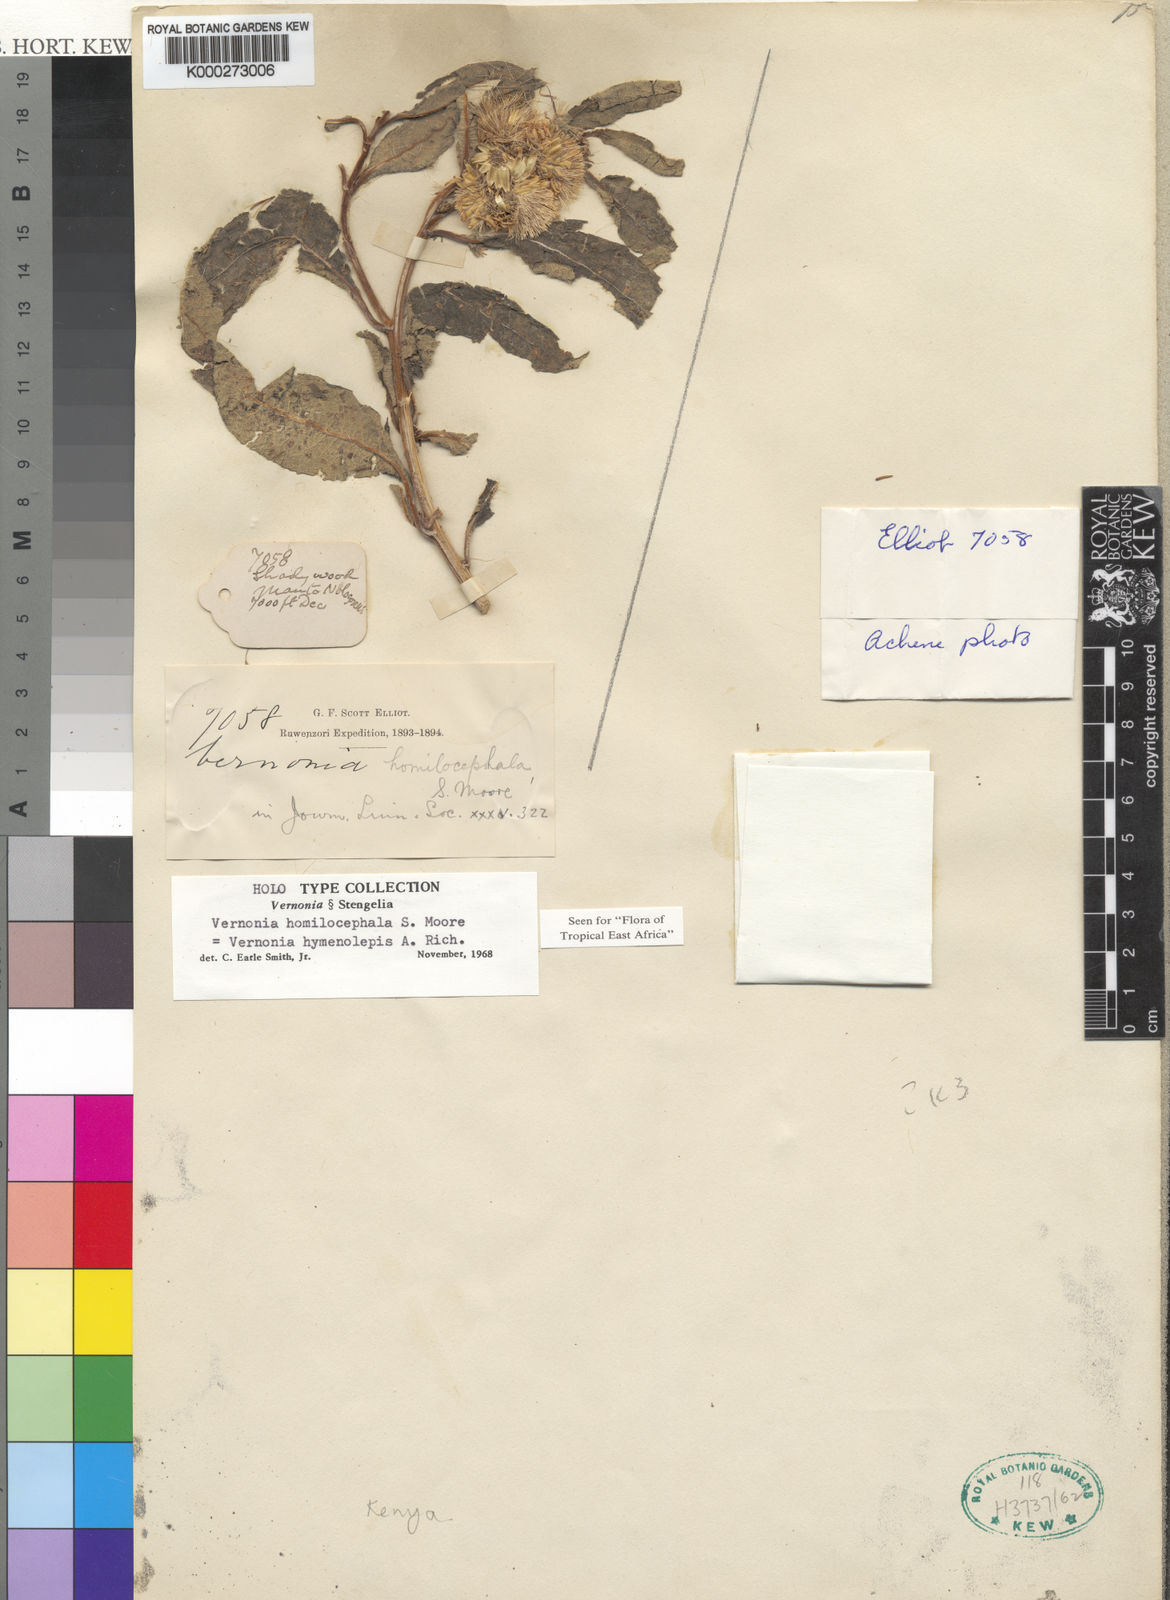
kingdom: Plantae
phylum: Tracheophyta
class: Magnoliopsida
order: Asterales
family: Asteraceae
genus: Baccharoides
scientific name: Baccharoides hymenolepis
